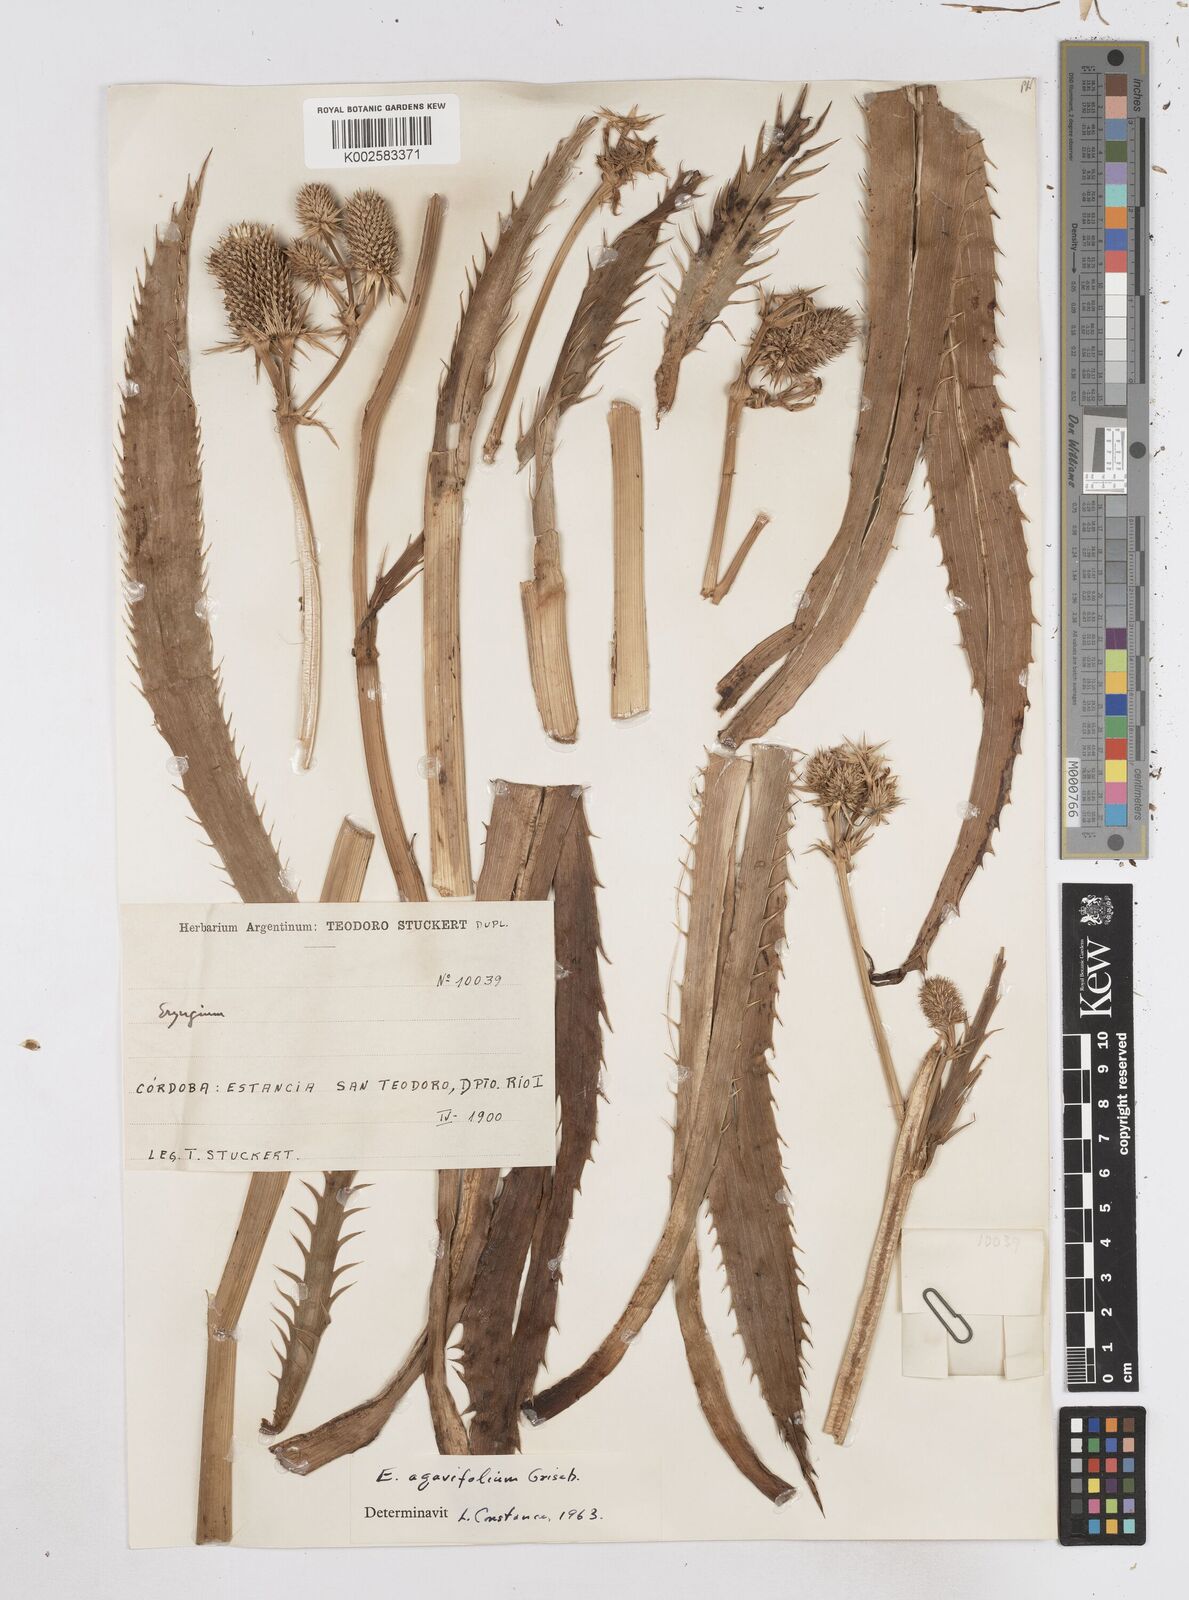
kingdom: Plantae
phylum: Tracheophyta
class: Magnoliopsida
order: Apiales
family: Apiaceae
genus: Eryngium
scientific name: Eryngium agavifolium
